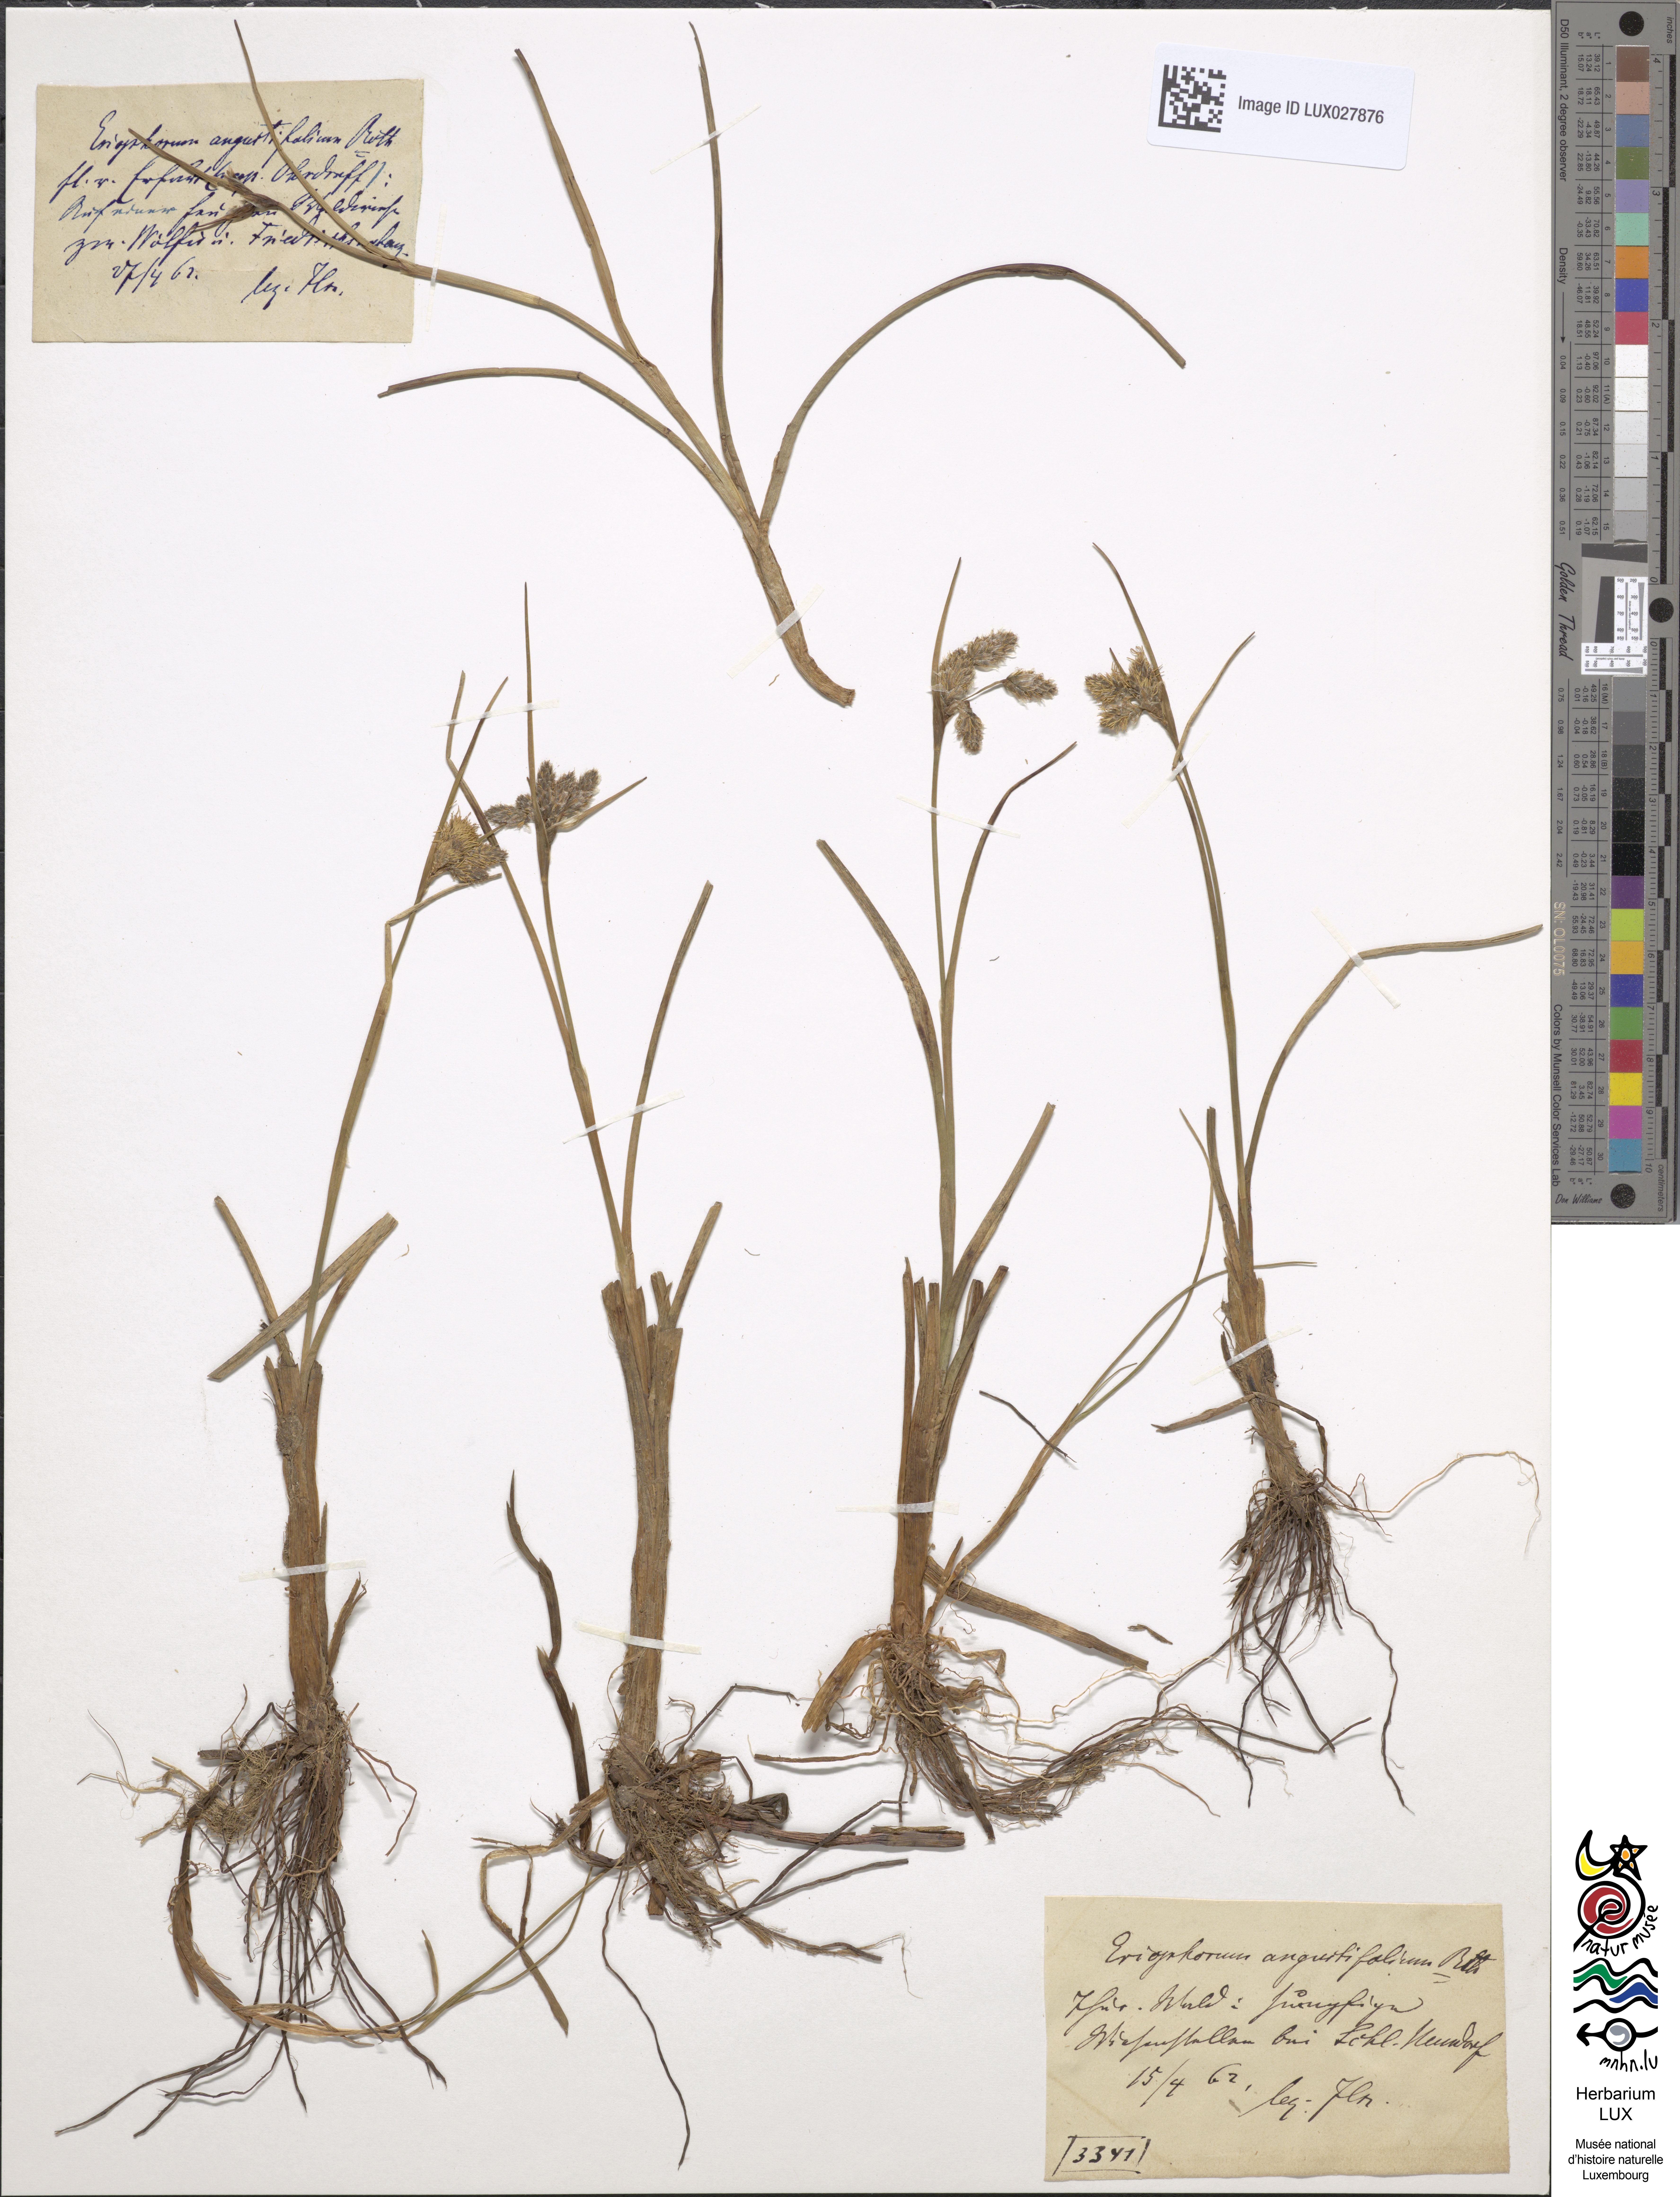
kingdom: Plantae
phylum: Tracheophyta
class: Liliopsida
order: Poales
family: Cyperaceae
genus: Eriophorum
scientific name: Eriophorum angustifolium
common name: Common cottongrass
